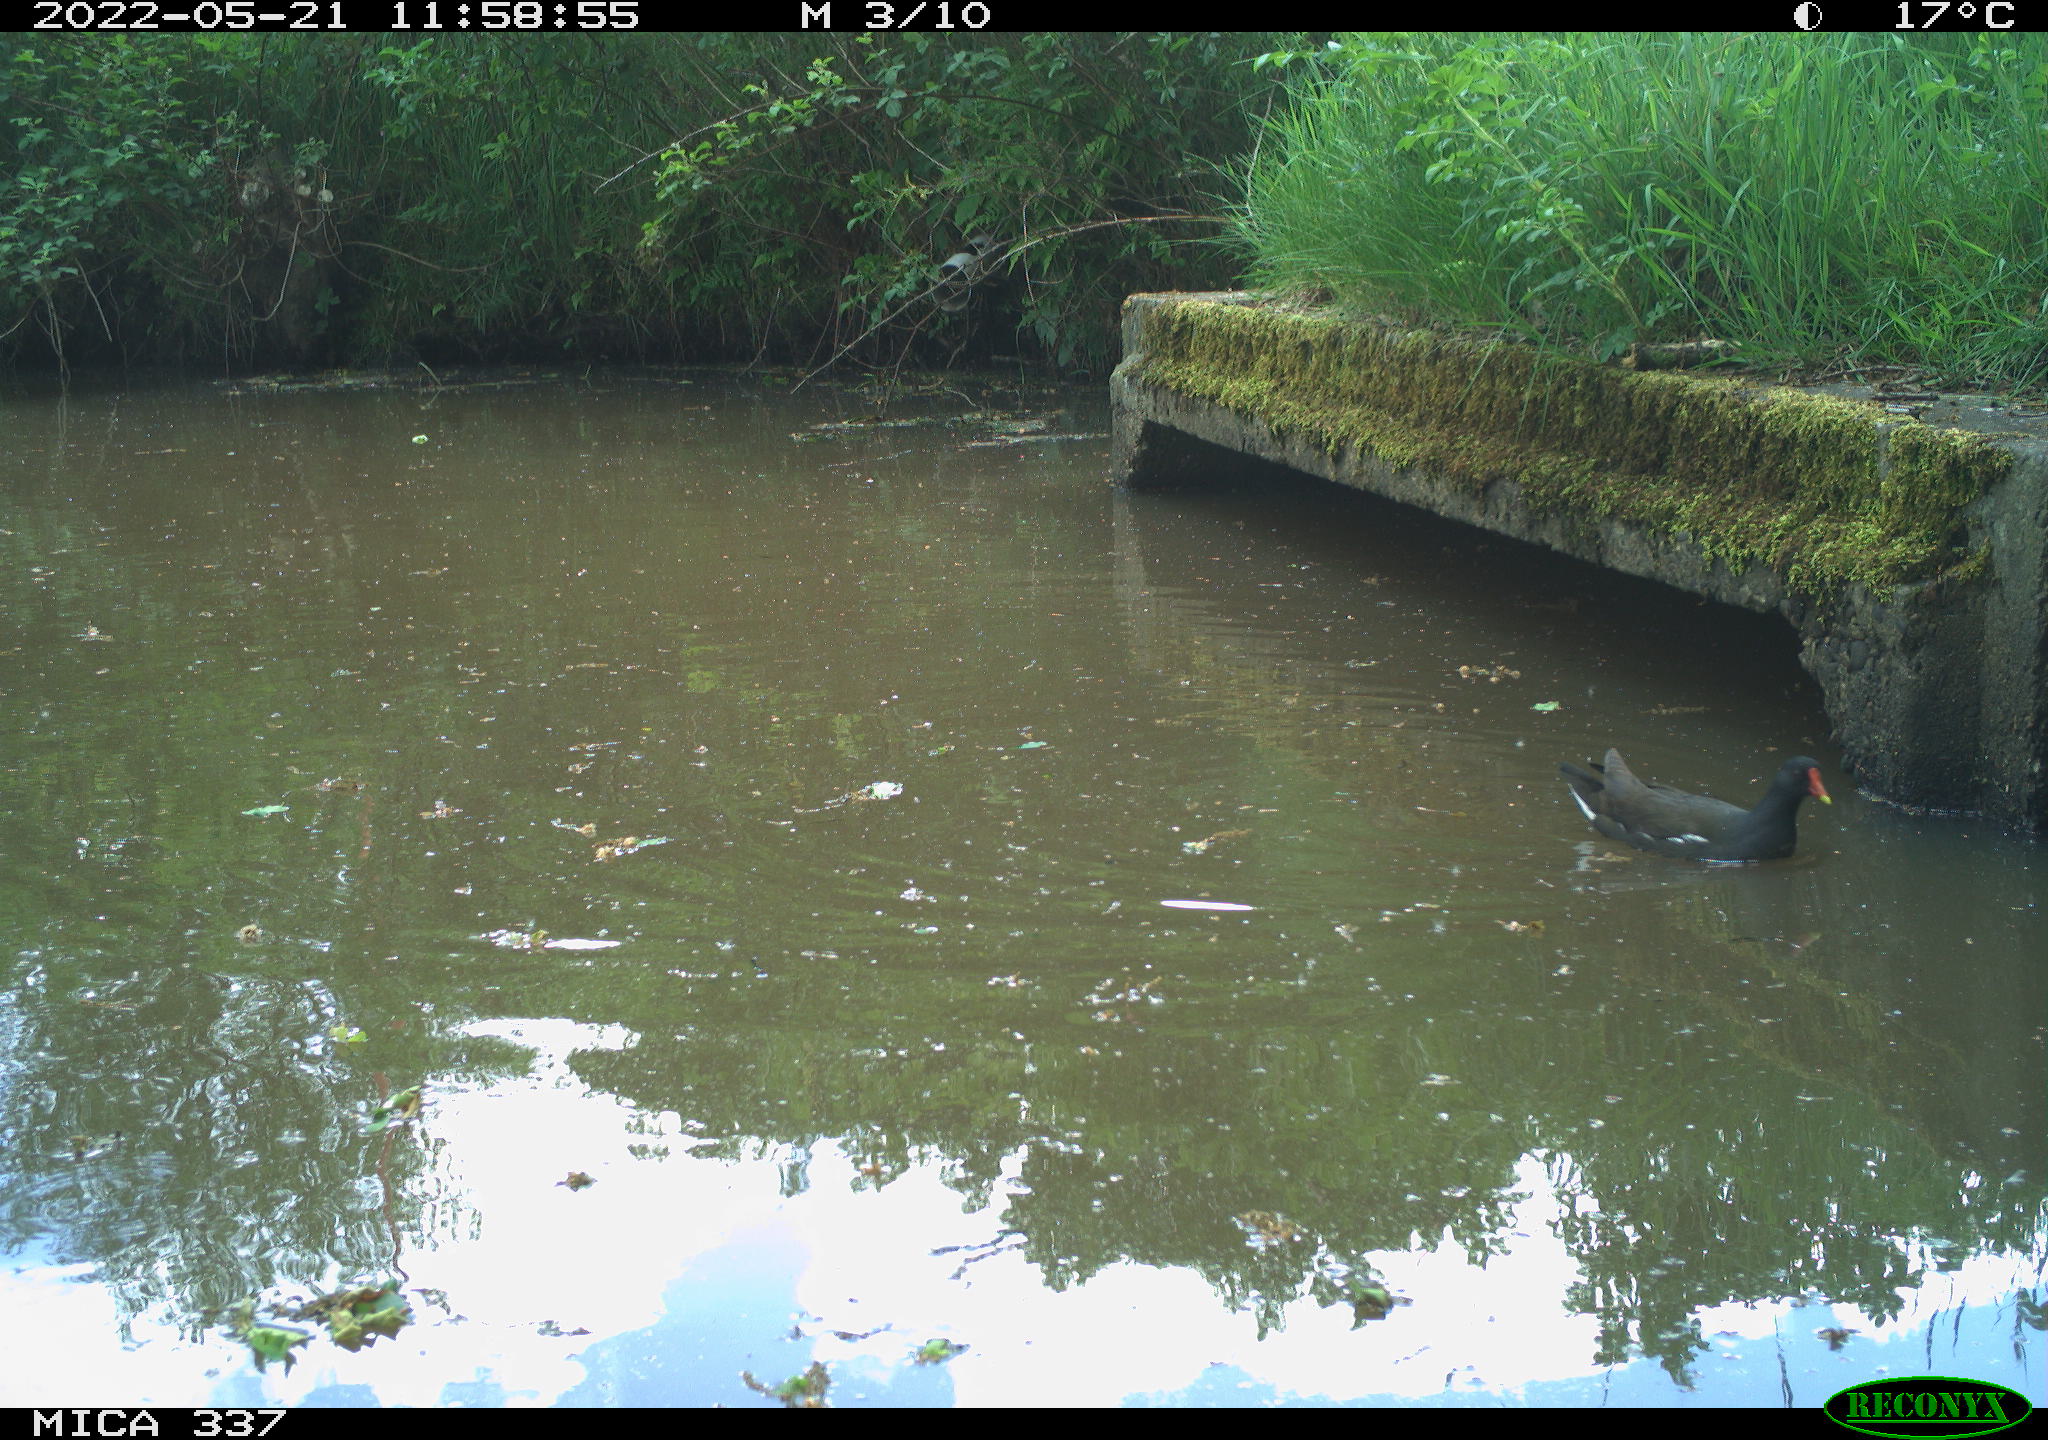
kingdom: Animalia
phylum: Chordata
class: Aves
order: Gruiformes
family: Rallidae
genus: Gallinula
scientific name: Gallinula chloropus
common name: Common moorhen
